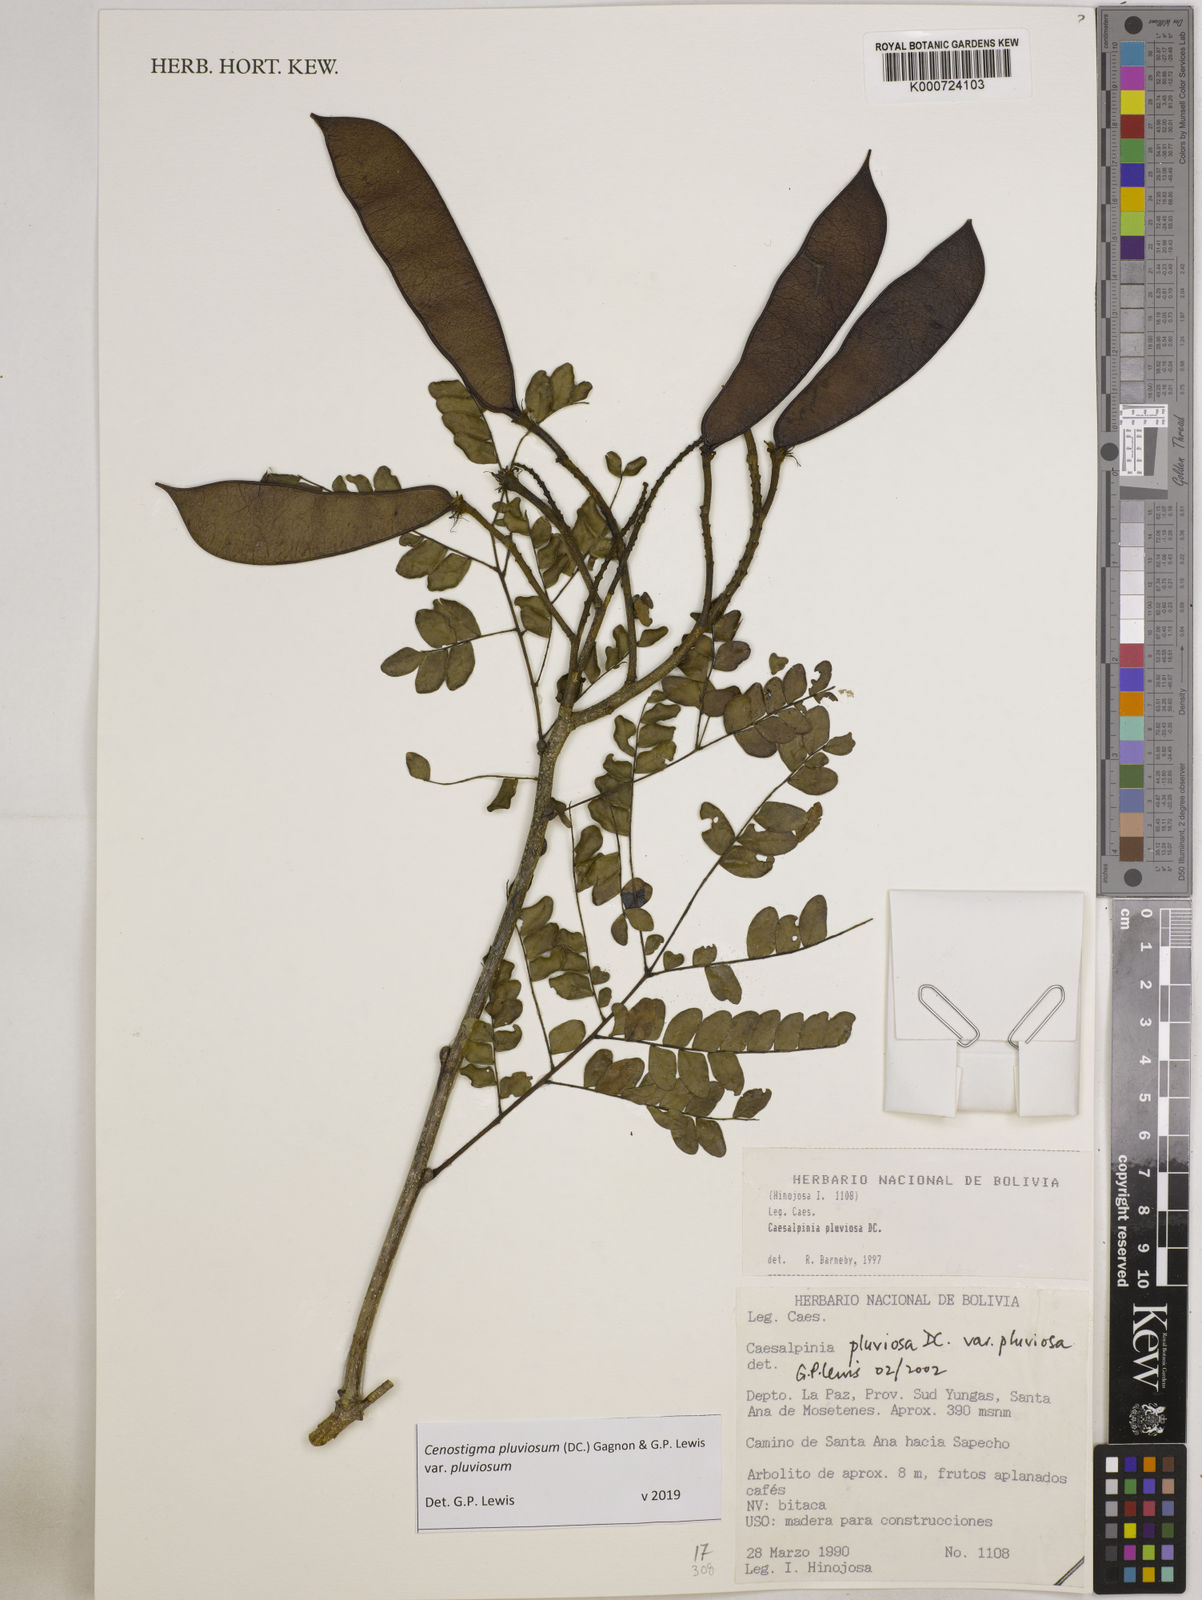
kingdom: Plantae
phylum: Tracheophyta
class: Magnoliopsida
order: Fabales
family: Fabaceae
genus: Cenostigma
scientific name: Cenostigma pluviosum
